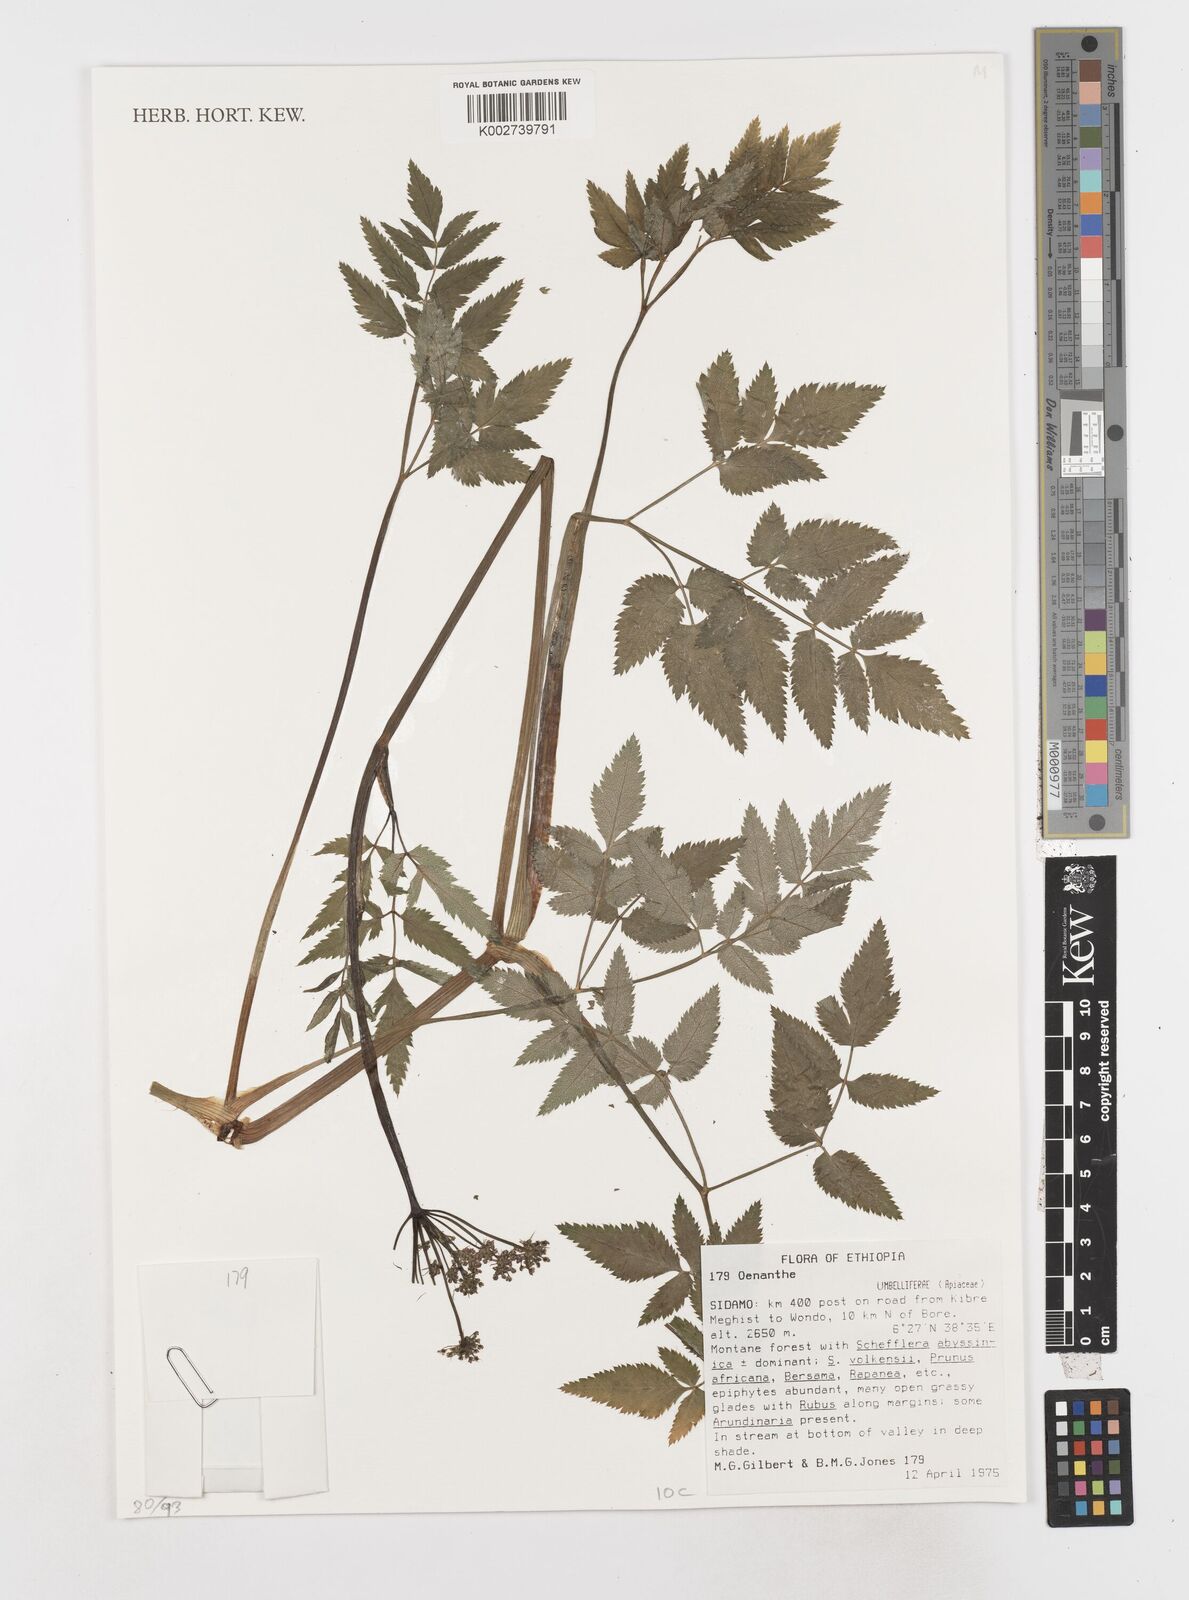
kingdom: Plantae
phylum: Tracheophyta
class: Magnoliopsida
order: Apiales
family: Apiaceae
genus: Oenanthe
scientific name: Oenanthe
